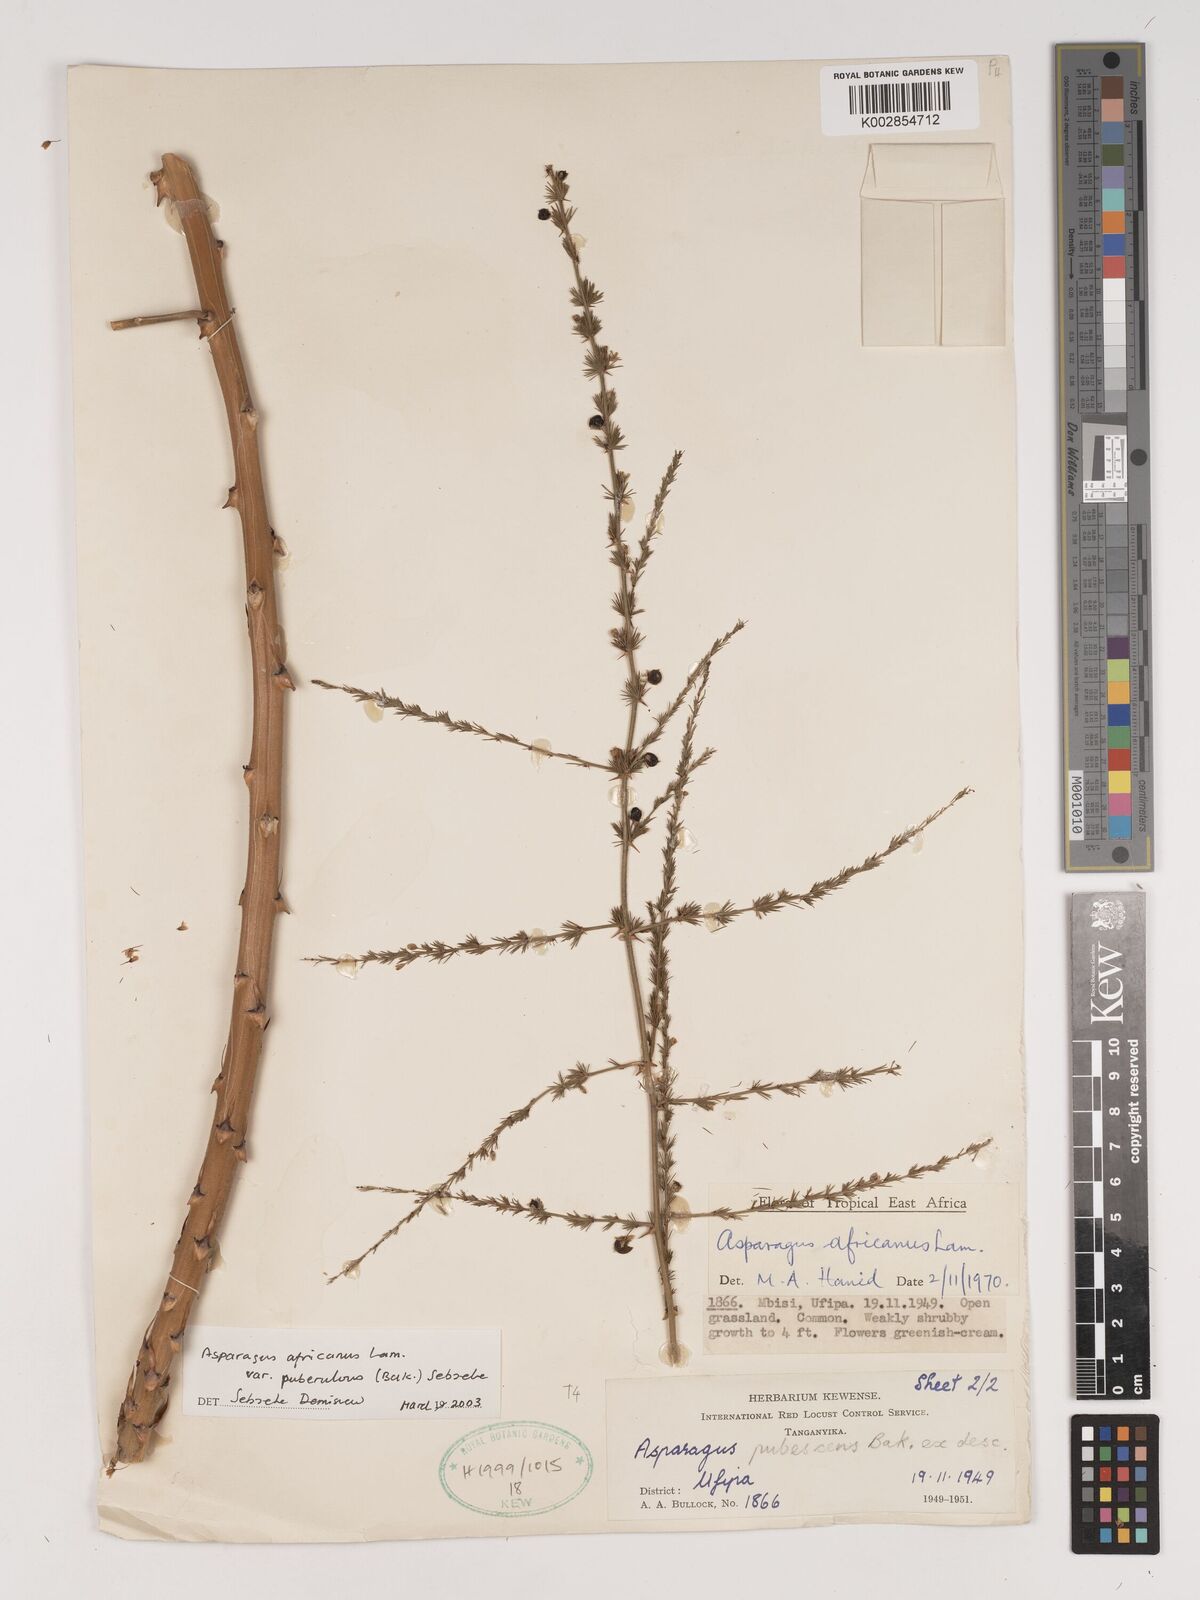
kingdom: Plantae
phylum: Tracheophyta
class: Liliopsida
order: Asparagales
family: Asparagaceae
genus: Asparagus
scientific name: Asparagus africanus
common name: Asparagus-fern
